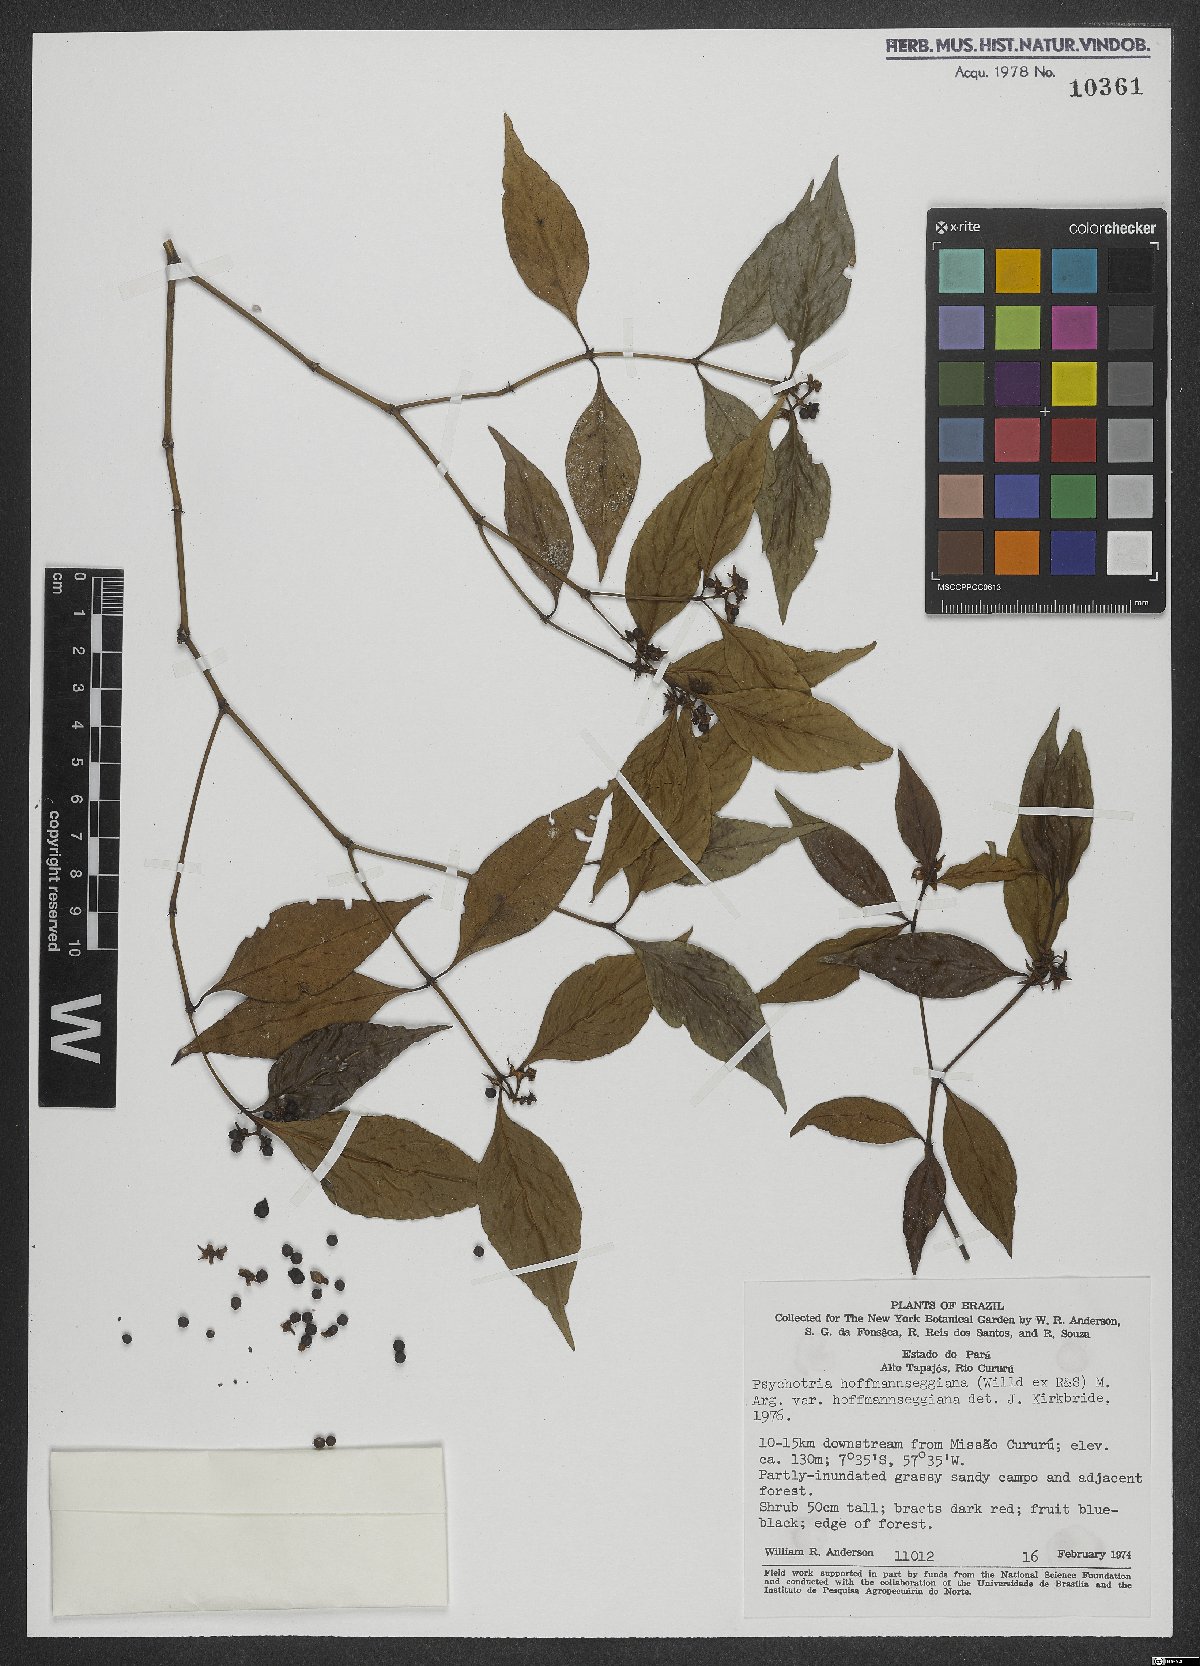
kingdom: Plantae
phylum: Tracheophyta
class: Magnoliopsida
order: Gentianales
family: Rubiaceae
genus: Palicourea
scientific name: Palicourea hoffmannseggiana
